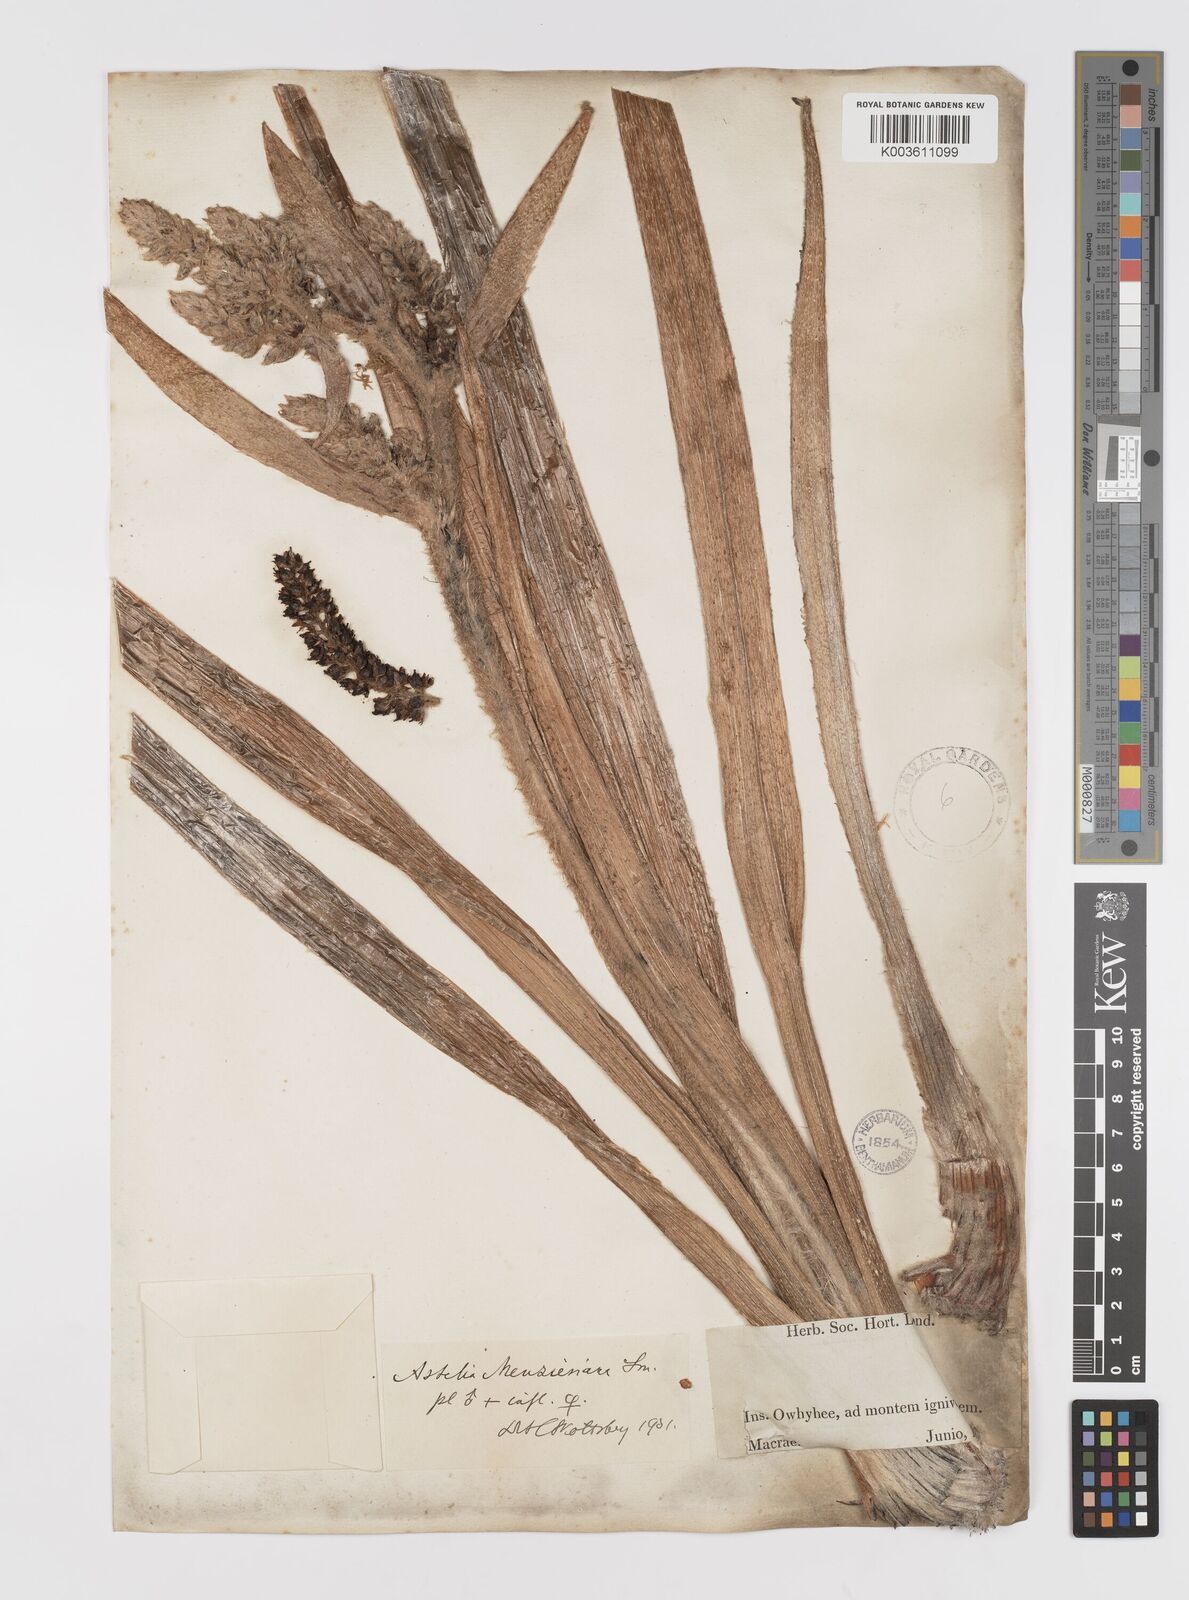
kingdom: Plantae
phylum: Tracheophyta
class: Liliopsida
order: Asparagales
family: Asteliaceae
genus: Astelia
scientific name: Astelia menziesiana
